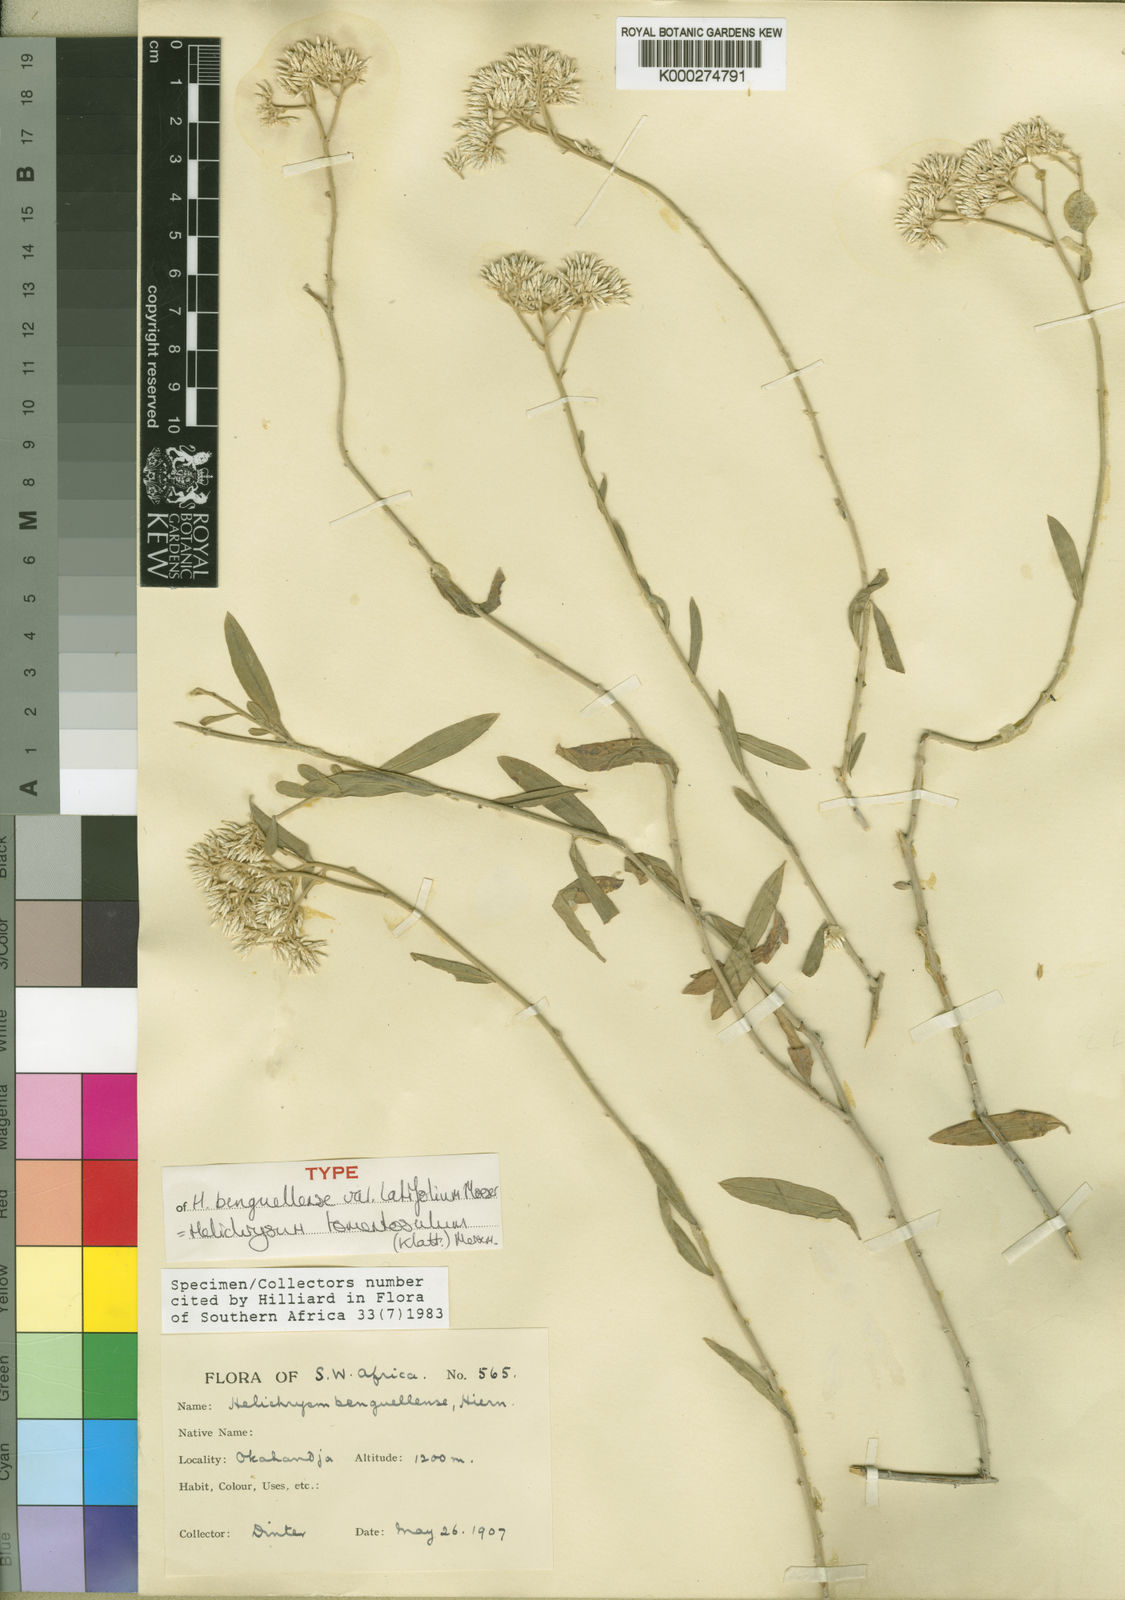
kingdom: Plantae
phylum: Tracheophyta
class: Magnoliopsida
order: Asterales
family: Asteraceae
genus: Helichrysum
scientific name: Helichrysum tomentosulum
